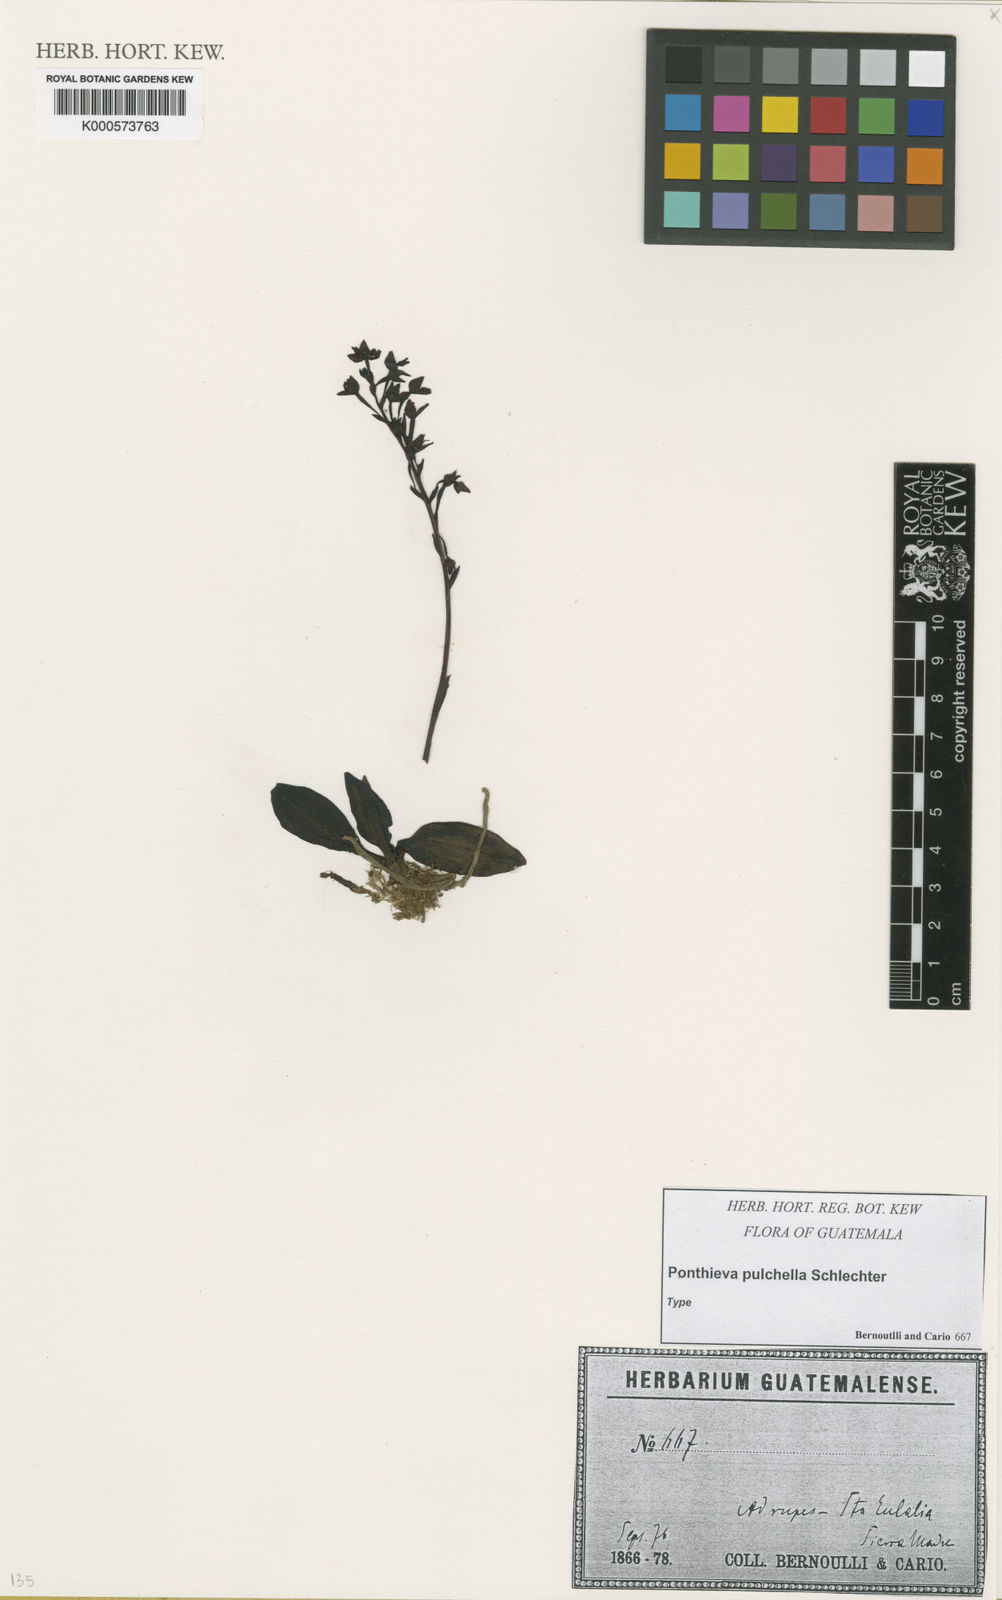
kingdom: Plantae
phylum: Tracheophyta
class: Liliopsida
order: Asparagales
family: Orchidaceae
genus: Ponthieva
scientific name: Ponthieva pulchella
